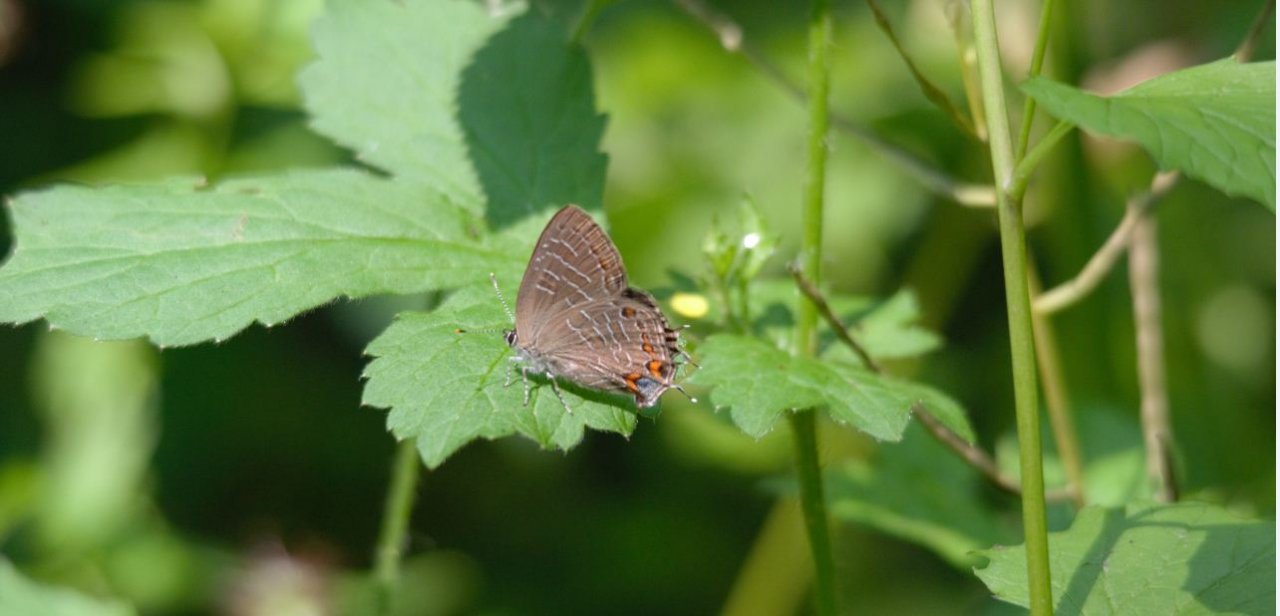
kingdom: Animalia
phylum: Arthropoda
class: Insecta
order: Lepidoptera
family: Lycaenidae
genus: Satyrium
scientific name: Satyrium liparops
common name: Striped Hairstreak
